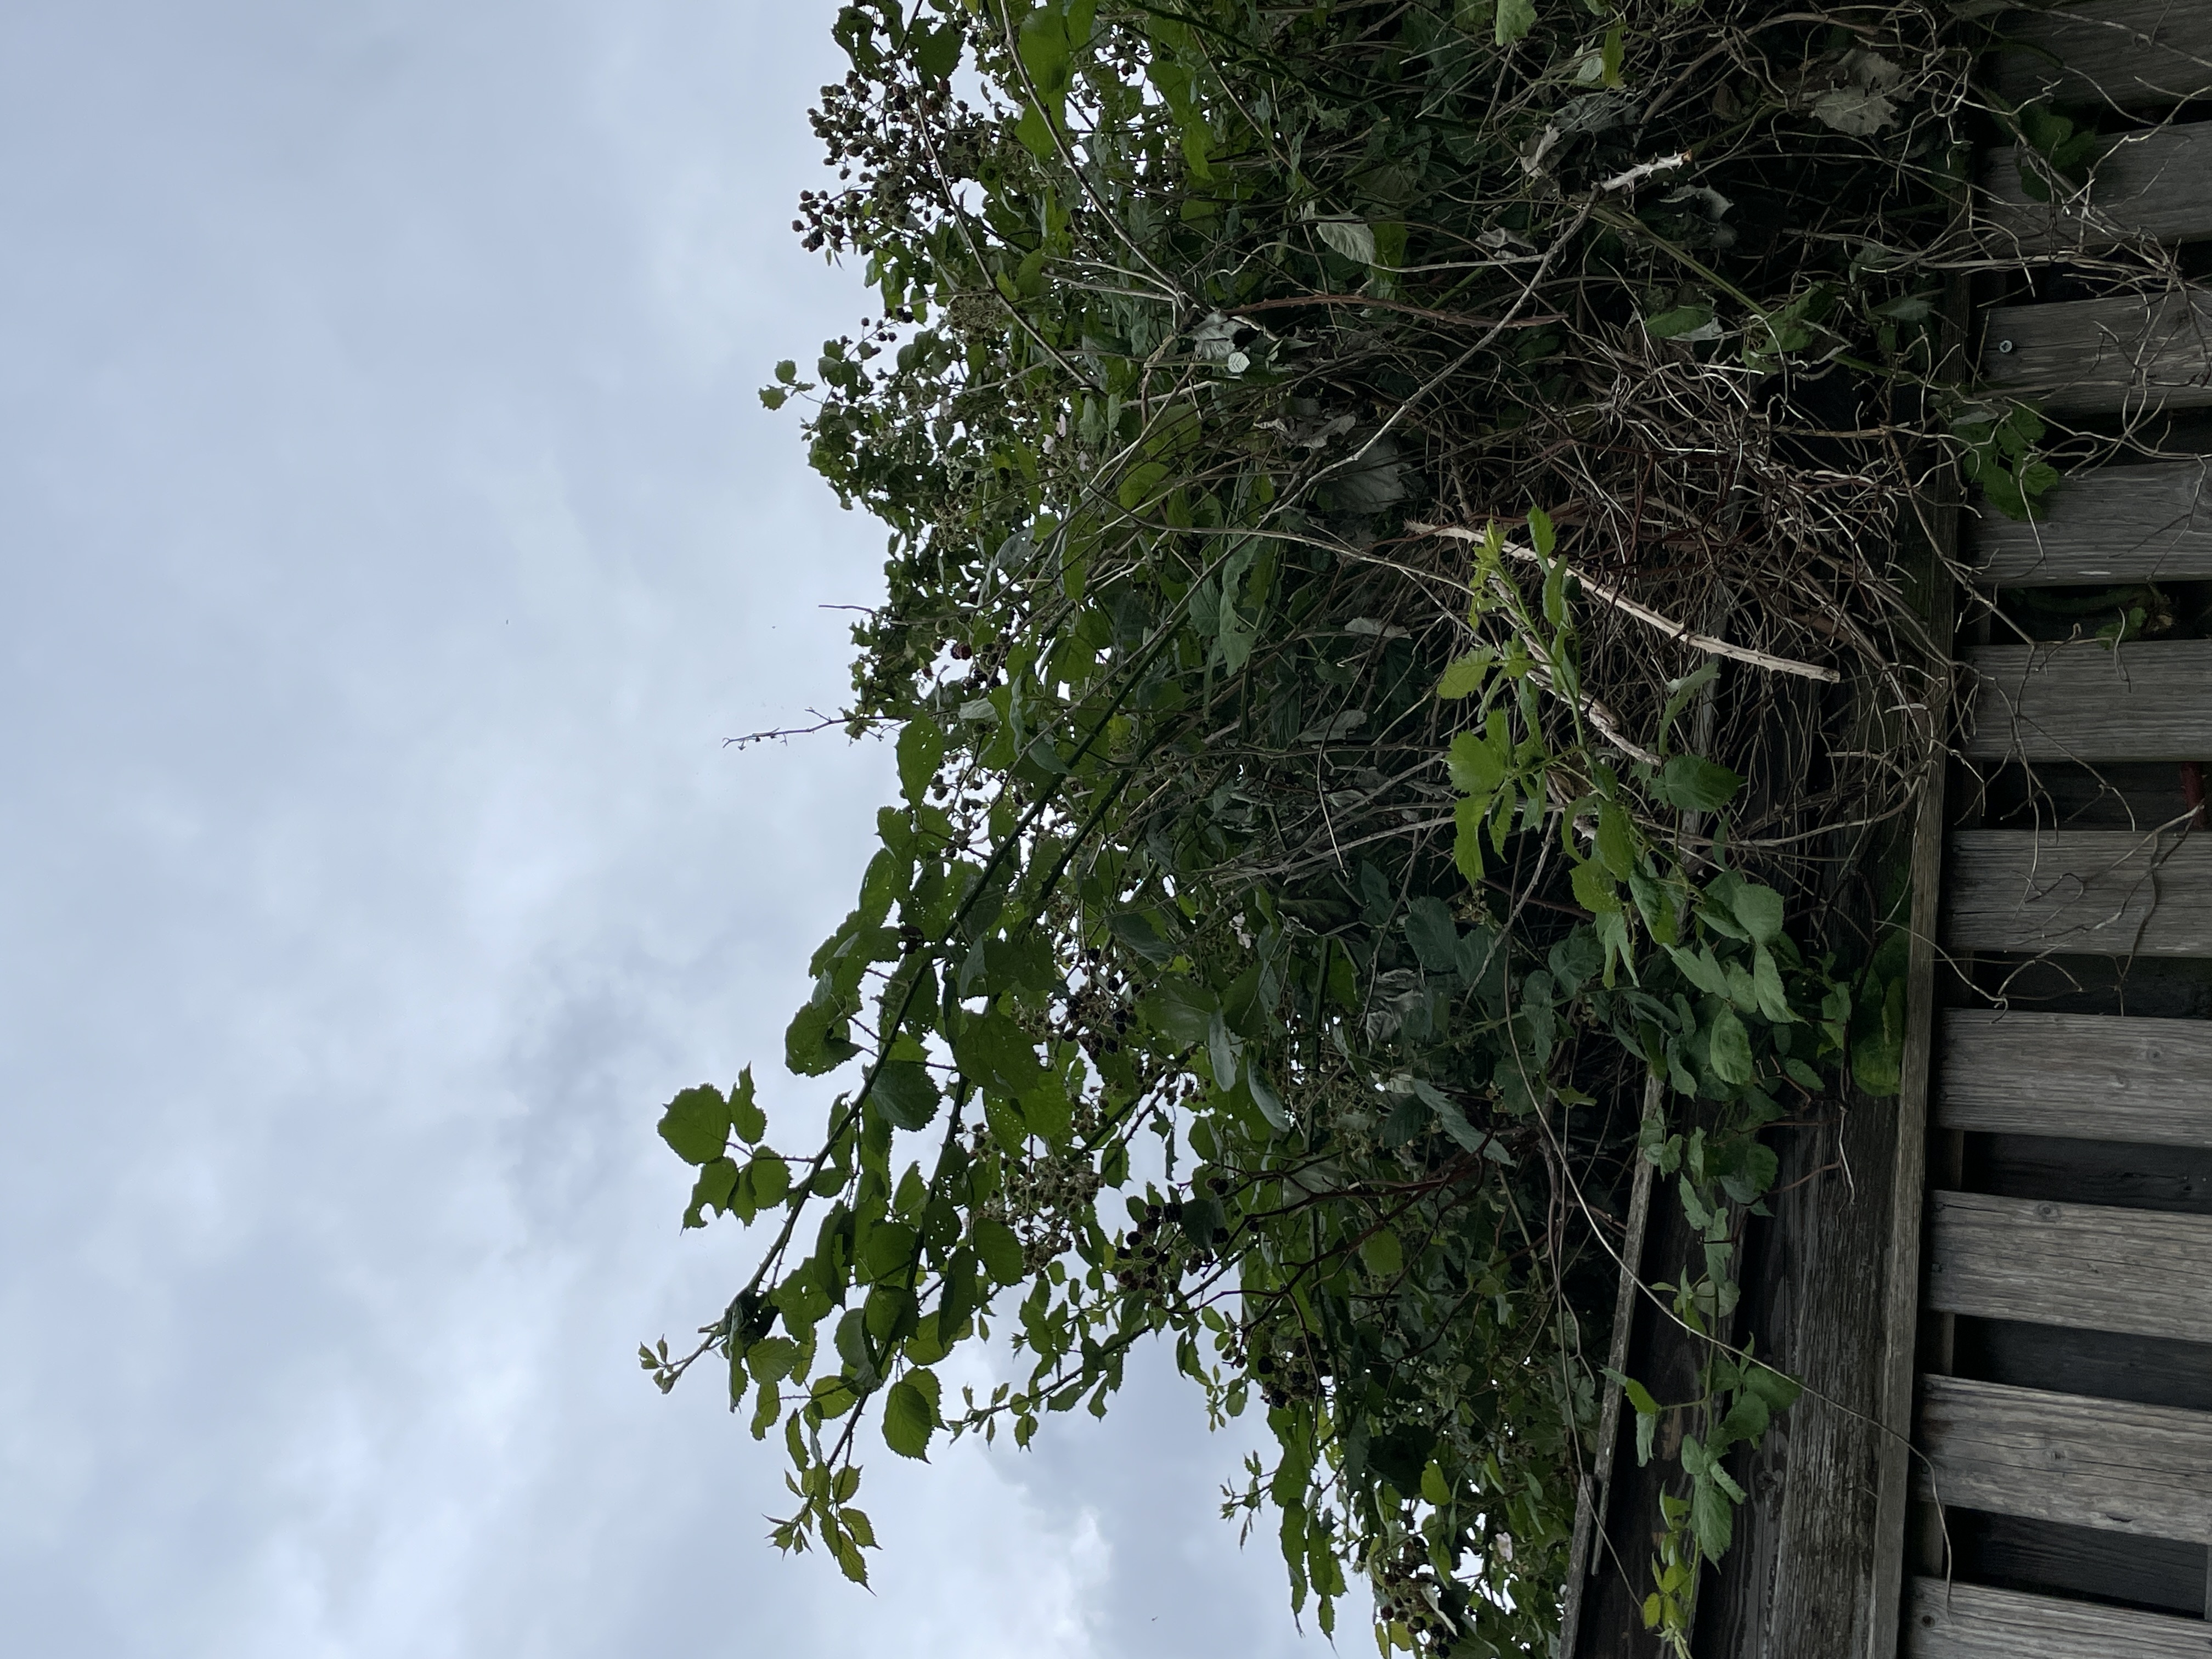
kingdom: Plantae
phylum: Tracheophyta
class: Magnoliopsida
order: Rosales
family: Rosaceae
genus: Rubus
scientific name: Rubus armeniacus
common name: Armensk brombær
